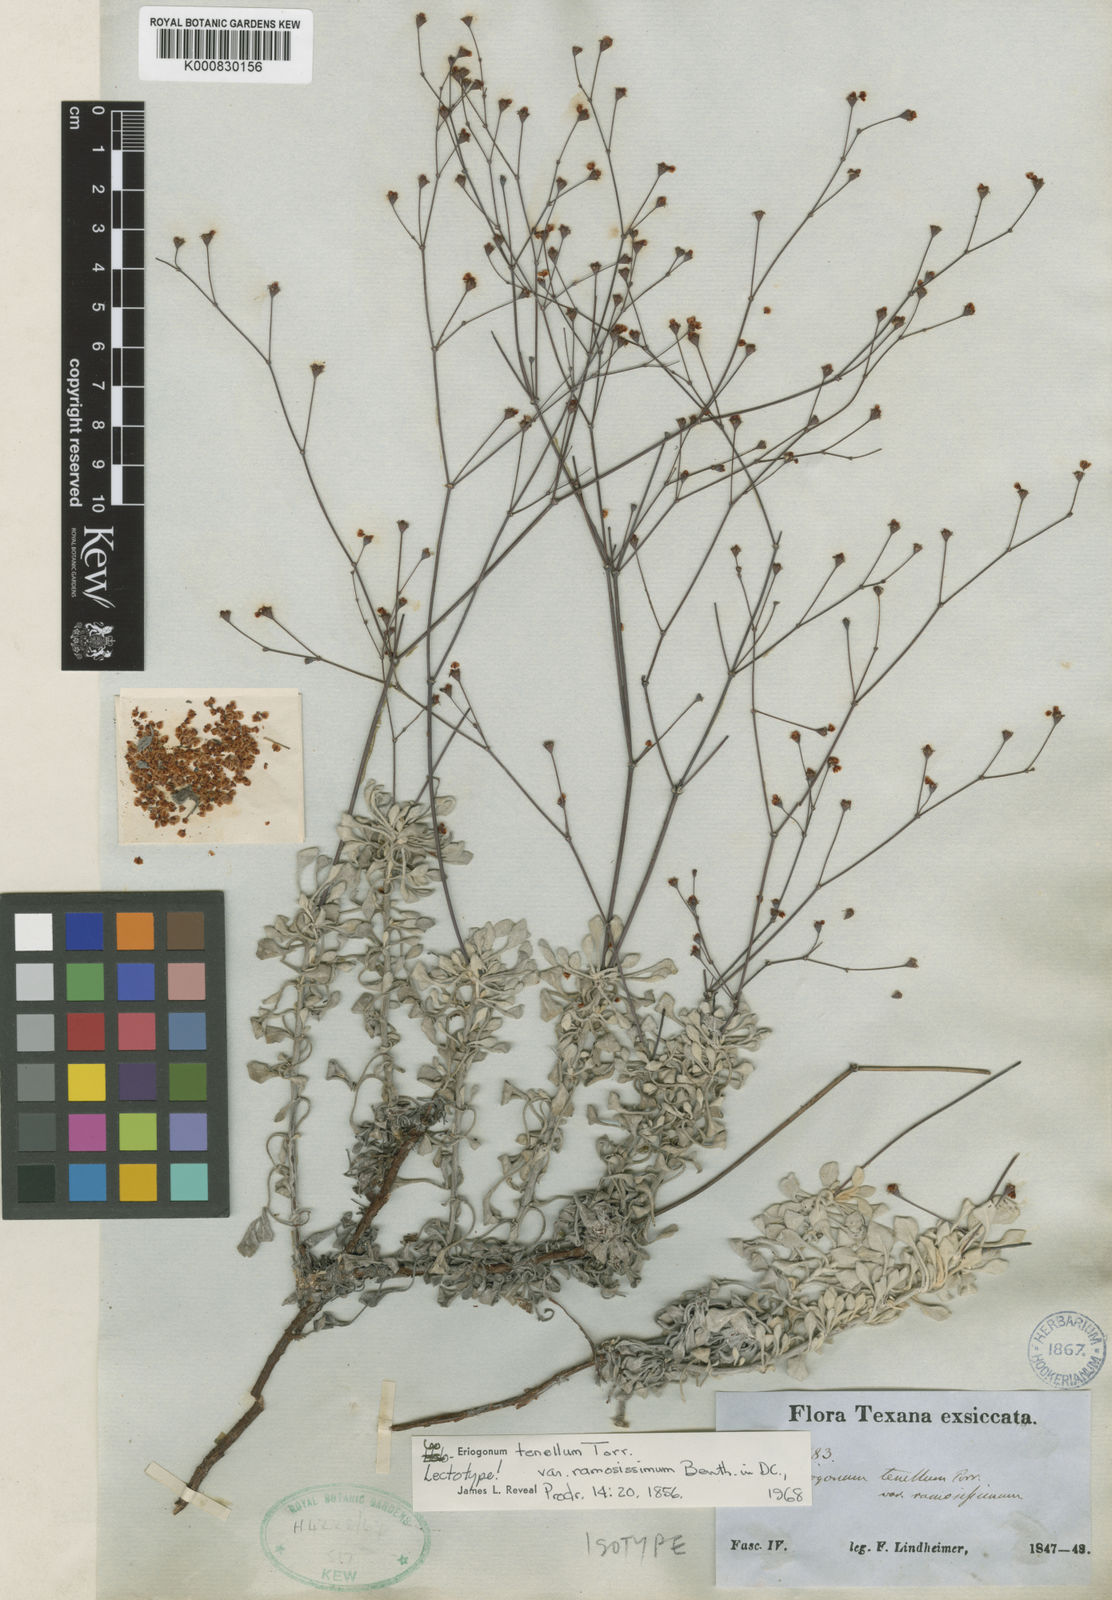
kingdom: Plantae
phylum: Tracheophyta
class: Magnoliopsida
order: Caryophyllales
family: Polygonaceae
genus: Eriogonum
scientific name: Eriogonum graniticum
